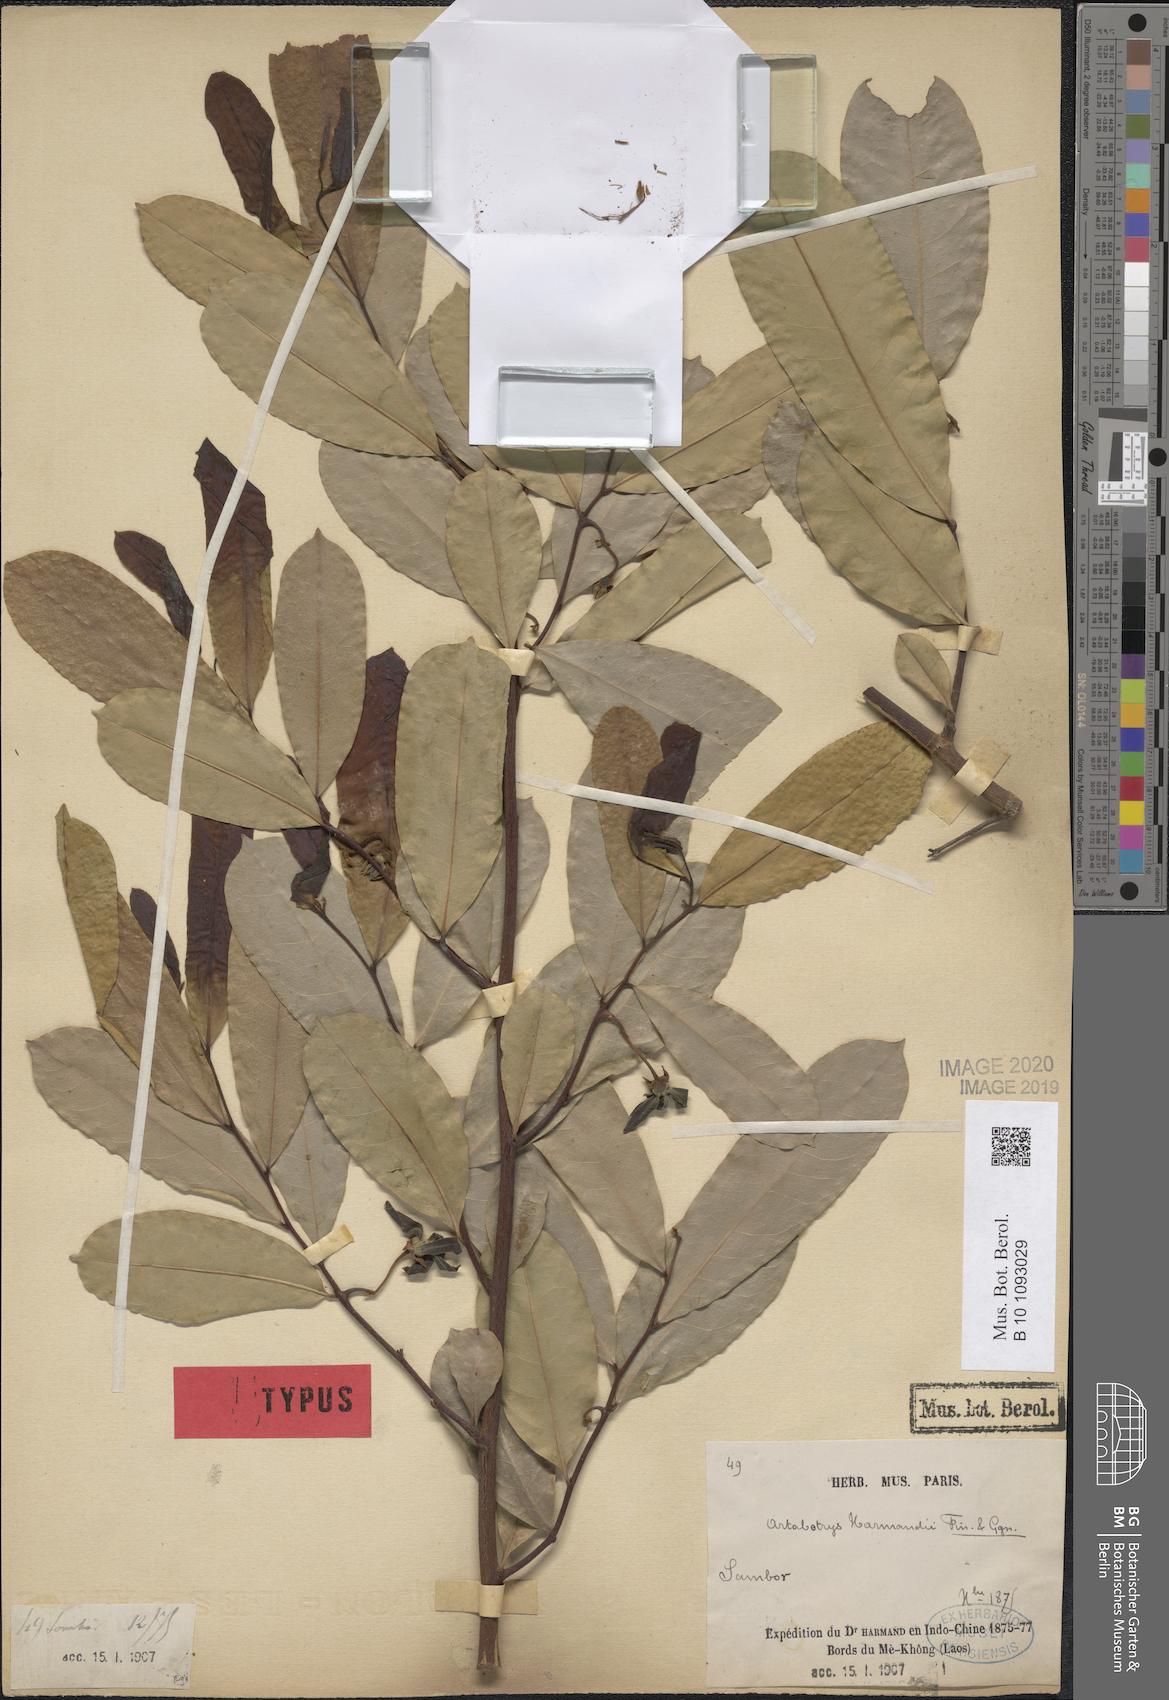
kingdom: Plantae
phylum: Tracheophyta
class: Magnoliopsida
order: Magnoliales
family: Annonaceae
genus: Artabotrys
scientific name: Artabotrys harmandii
